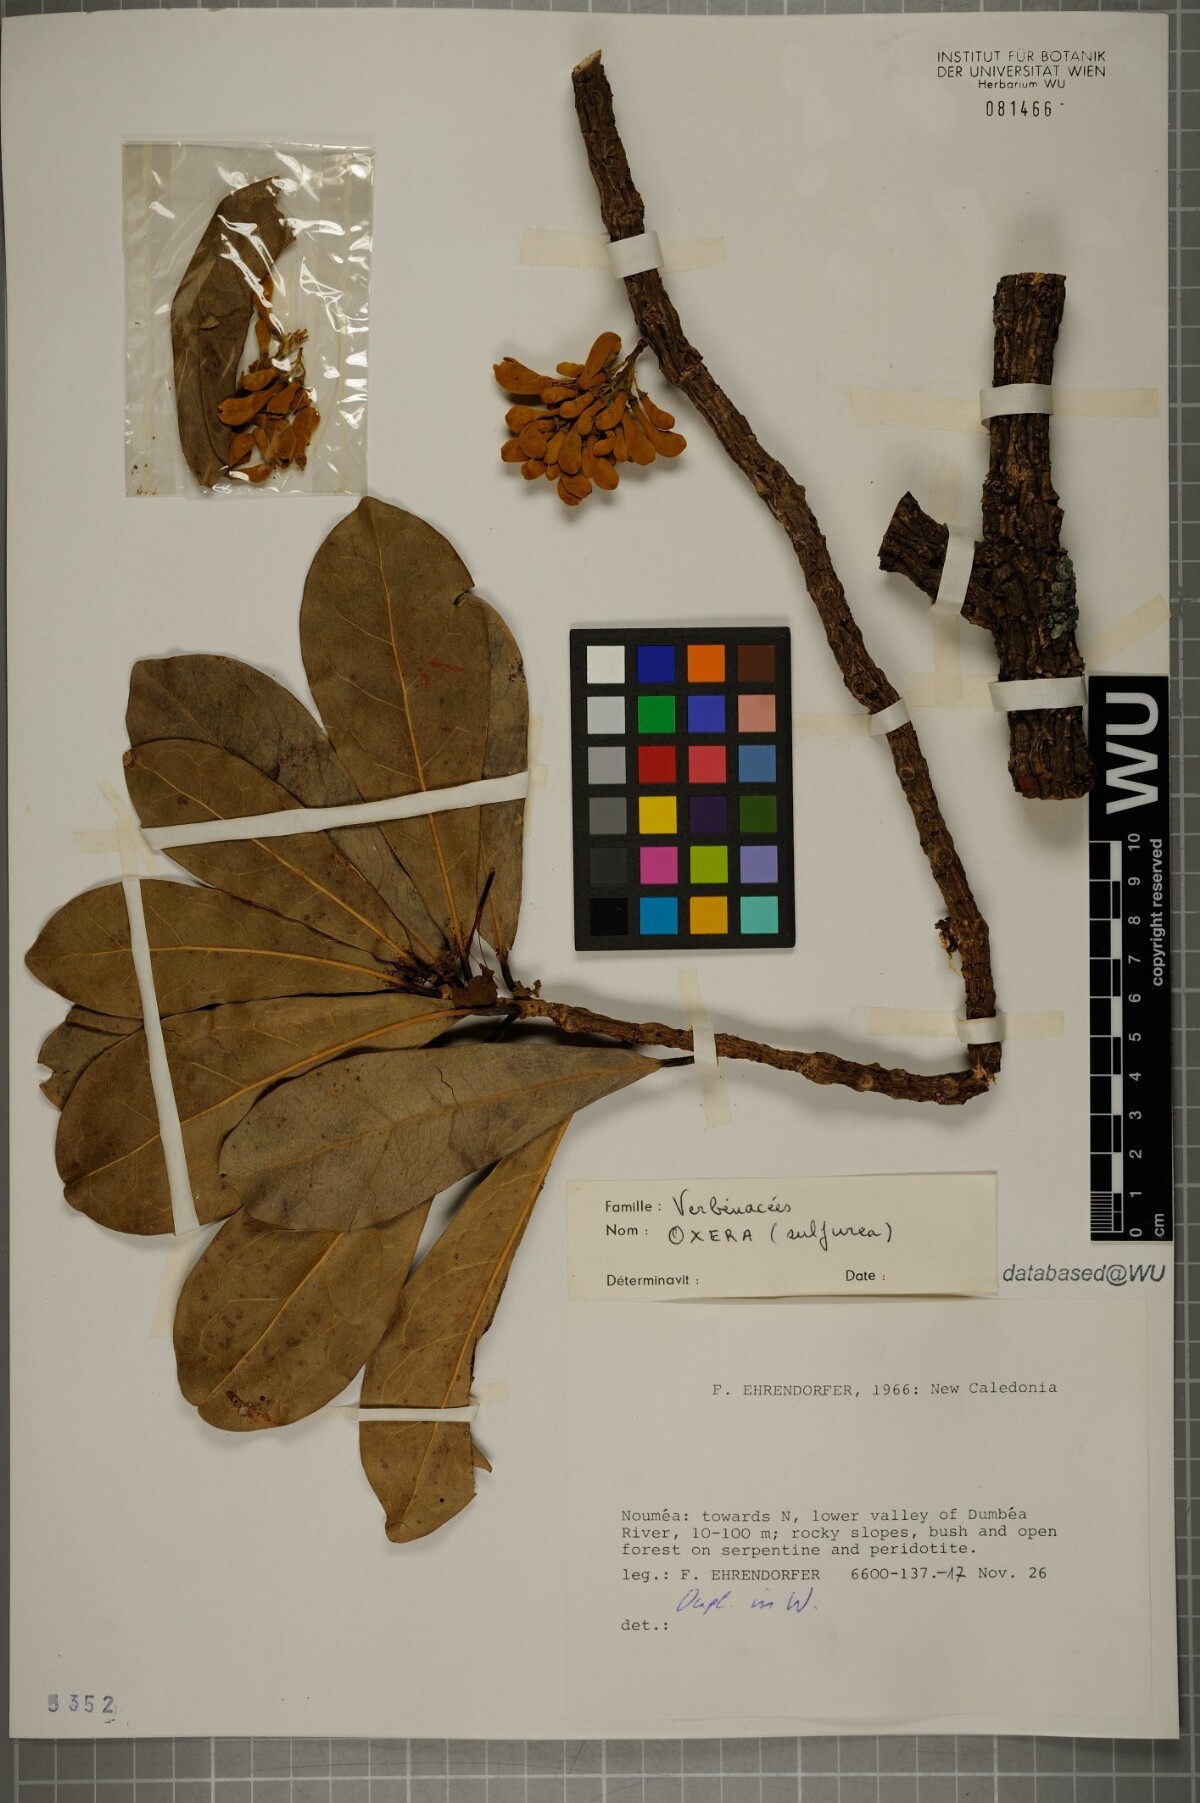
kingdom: Plantae
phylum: Tracheophyta
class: Magnoliopsida
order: Lamiales
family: Lamiaceae
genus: Oxera
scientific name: Oxera sulfurea
